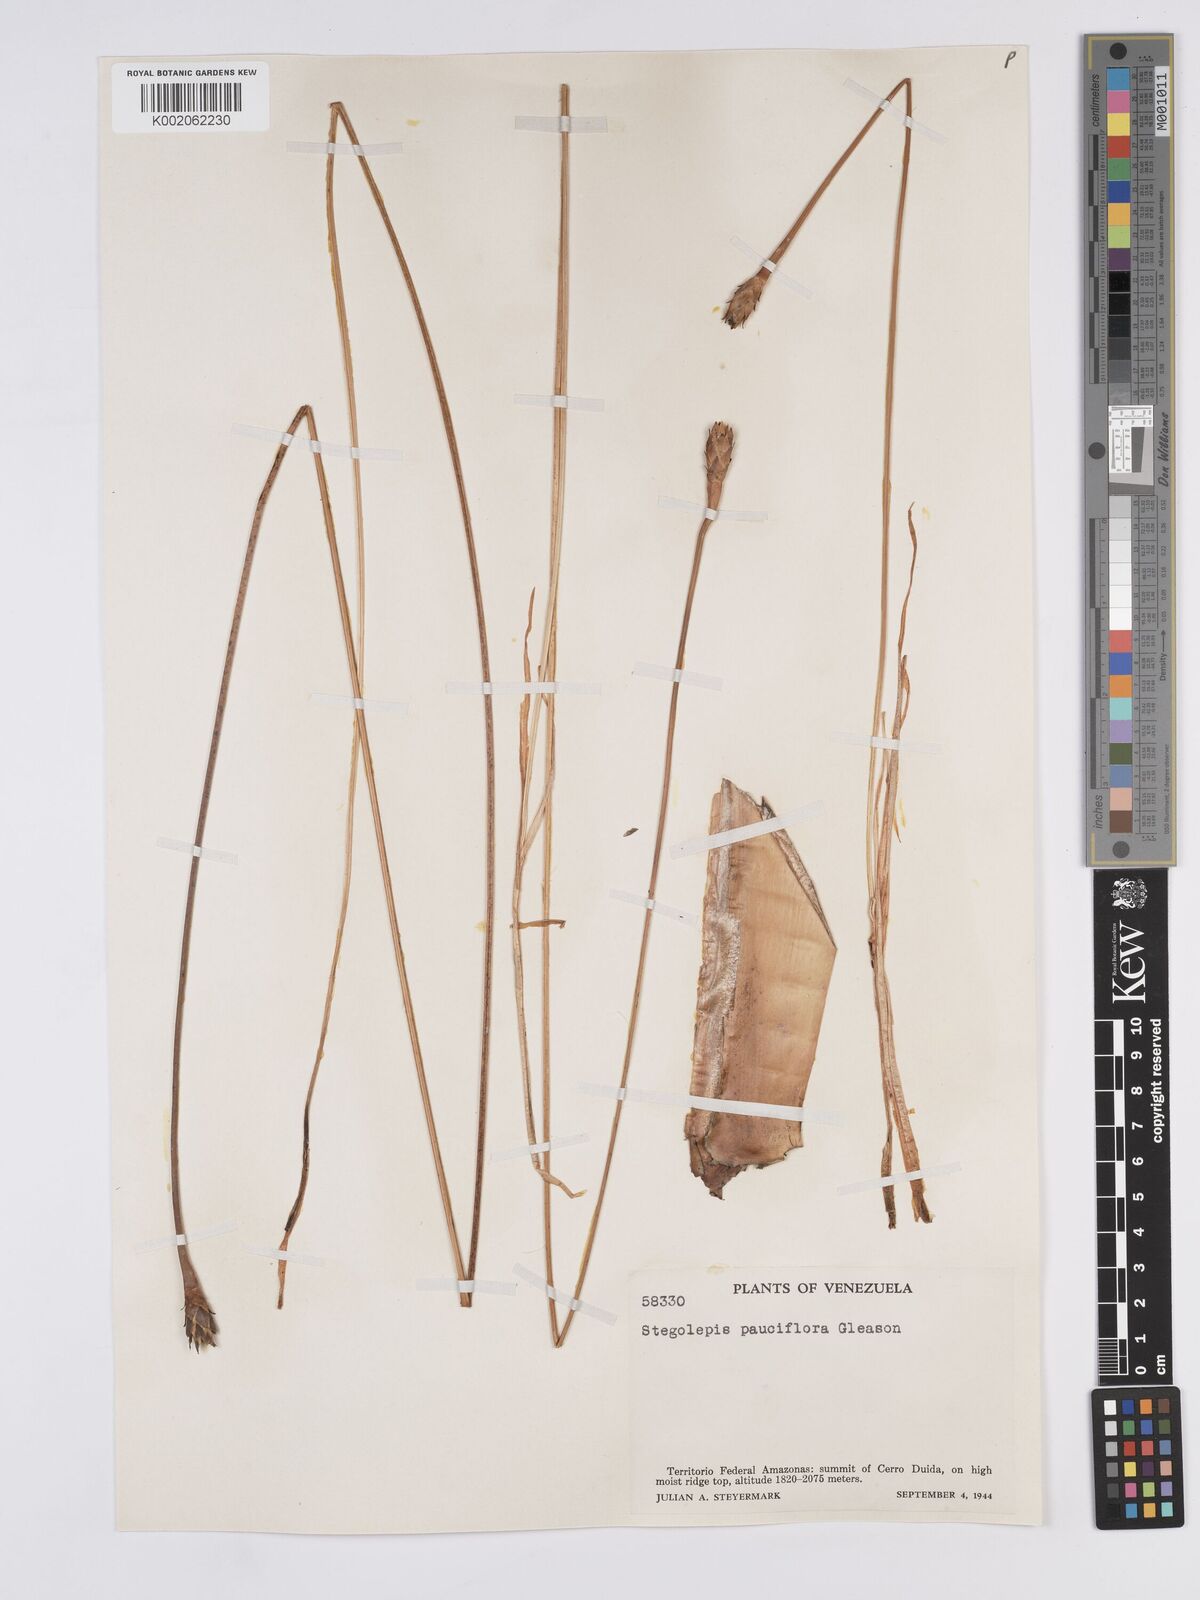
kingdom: Plantae
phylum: Tracheophyta
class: Liliopsida
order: Poales
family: Rapateaceae
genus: Stegolepis
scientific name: Stegolepis pauciflora
